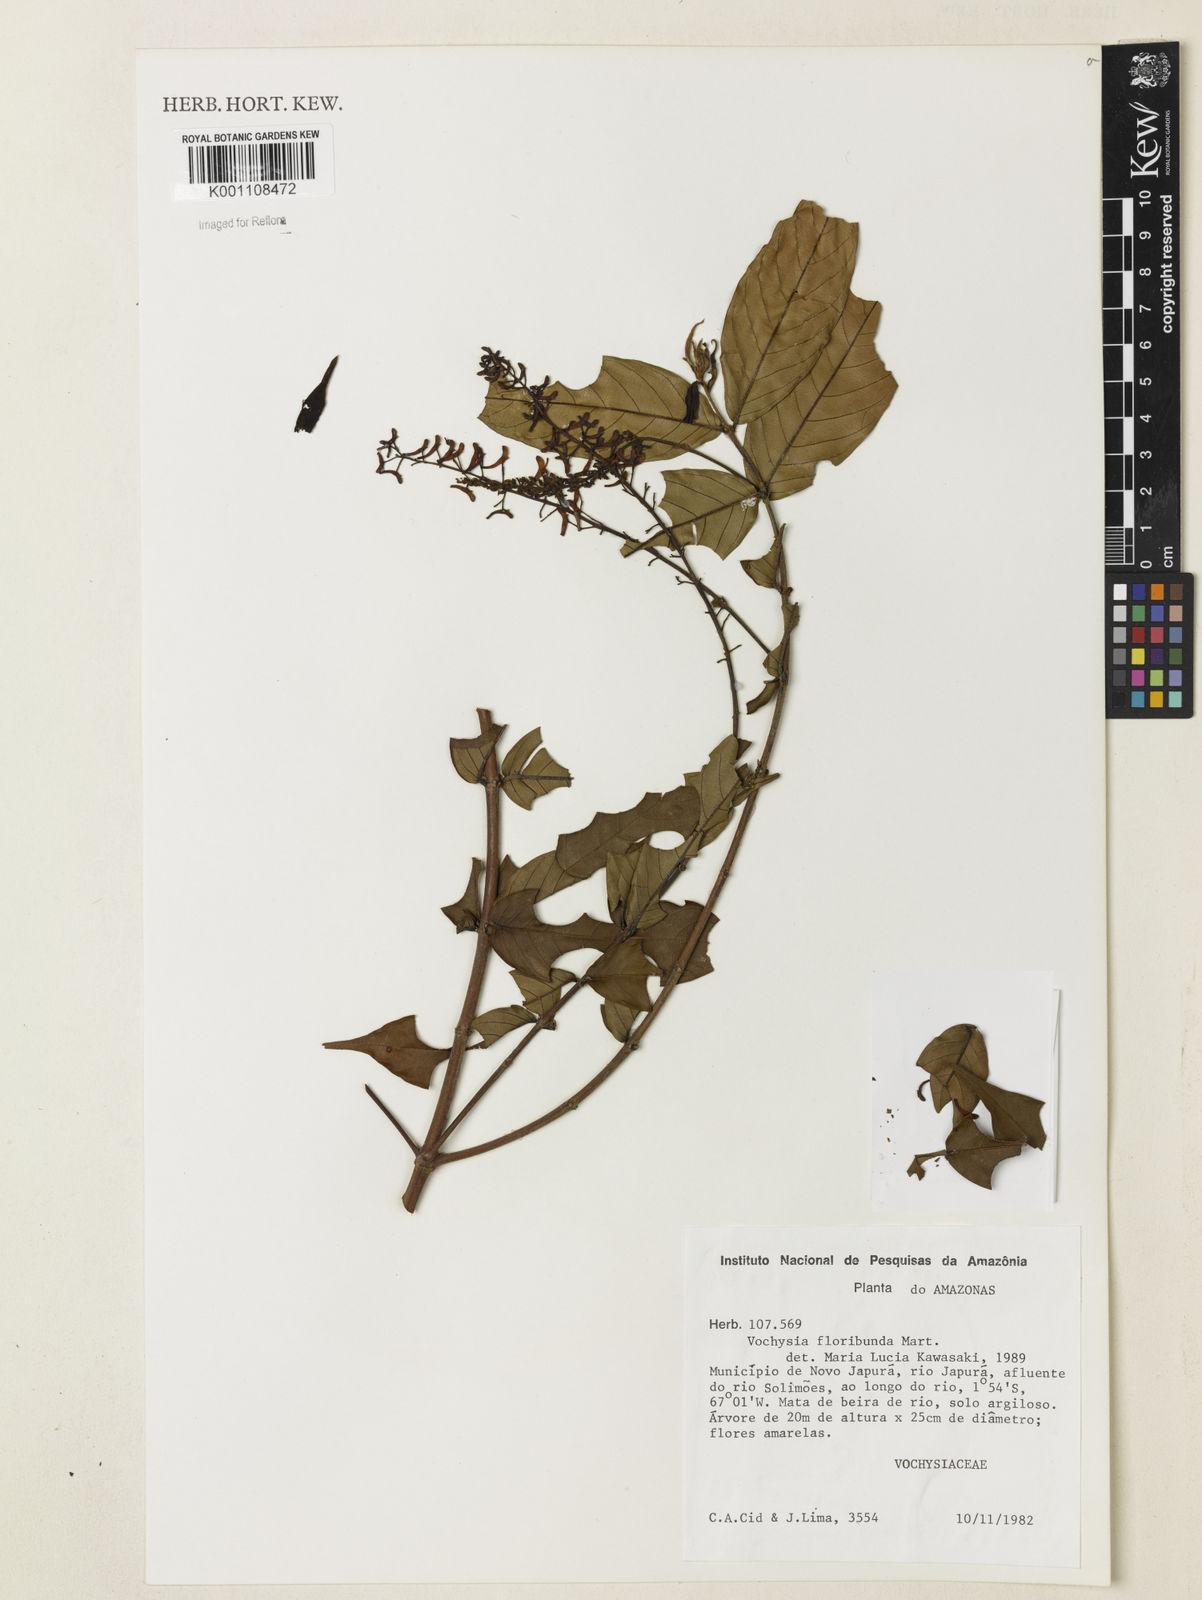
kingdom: Plantae
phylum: Tracheophyta
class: Magnoliopsida
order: Myrtales
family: Vochysiaceae
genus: Vochysia
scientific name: Vochysia floribunda
